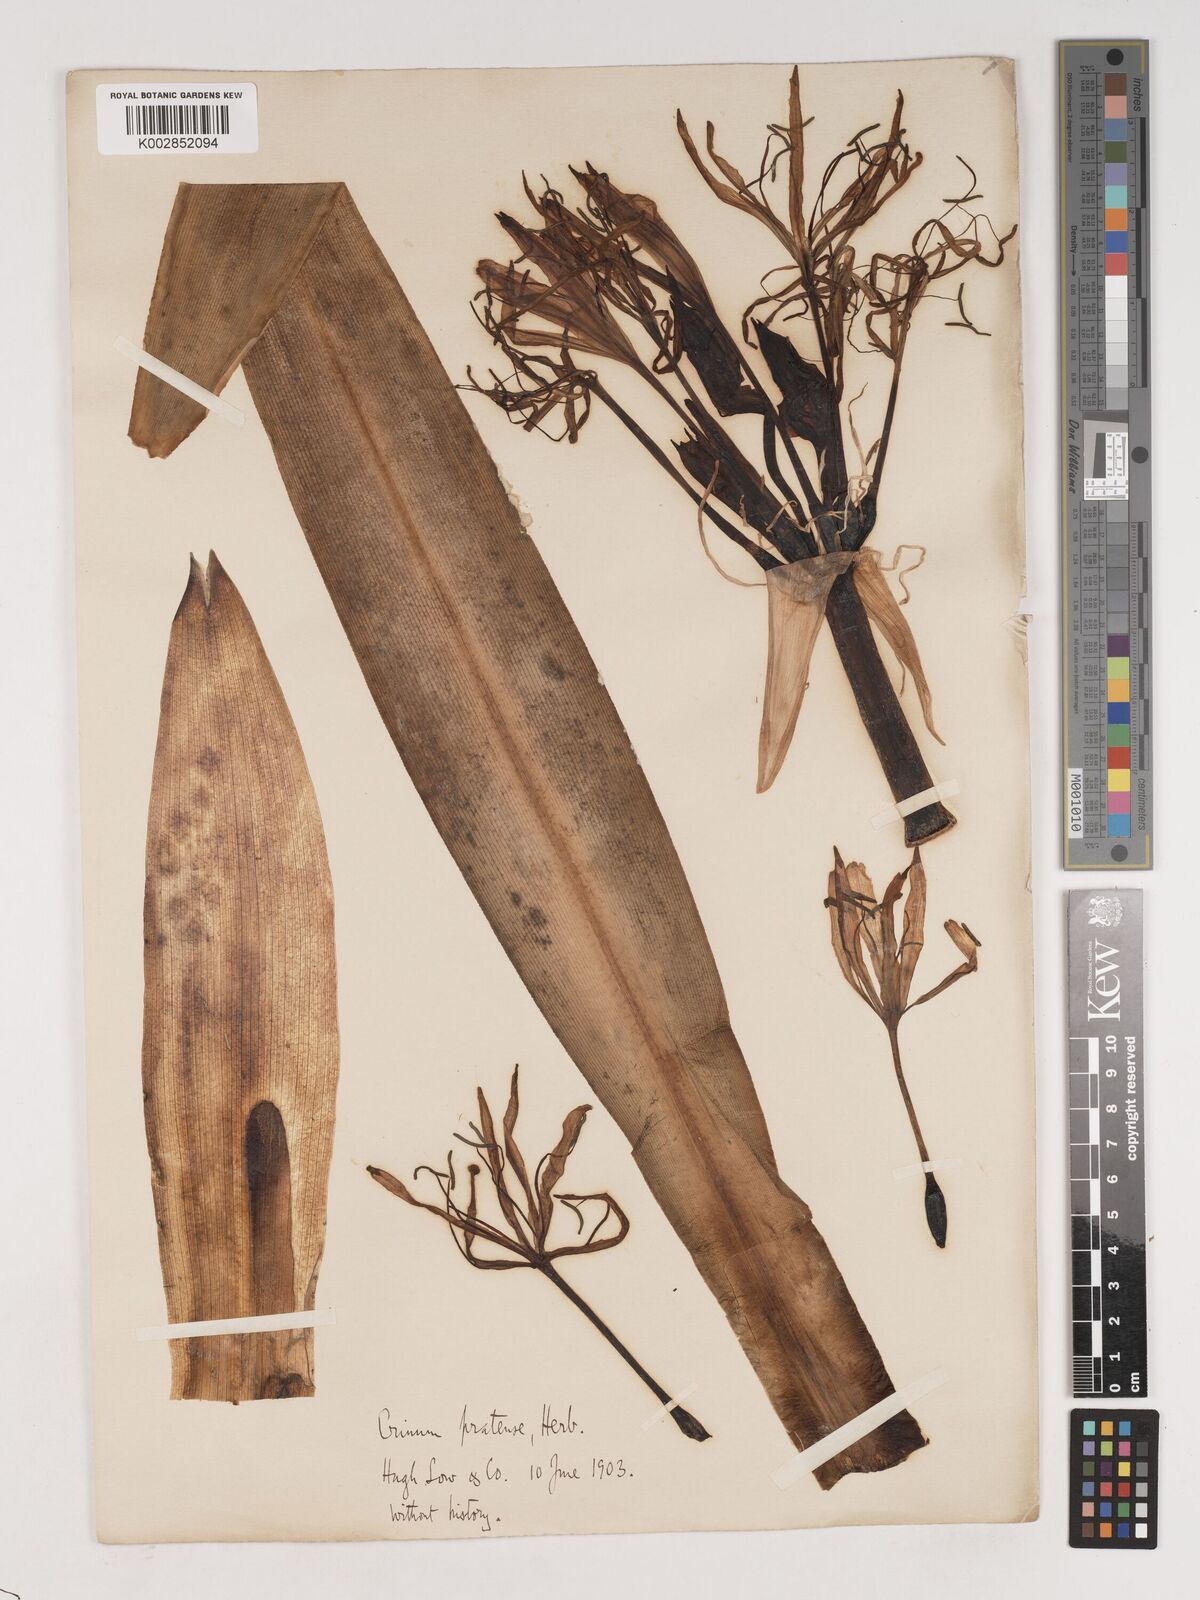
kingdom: Plantae
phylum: Tracheophyta
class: Liliopsida
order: Asparagales
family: Amaryllidaceae
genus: Crinum
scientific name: Crinum lorifolium
